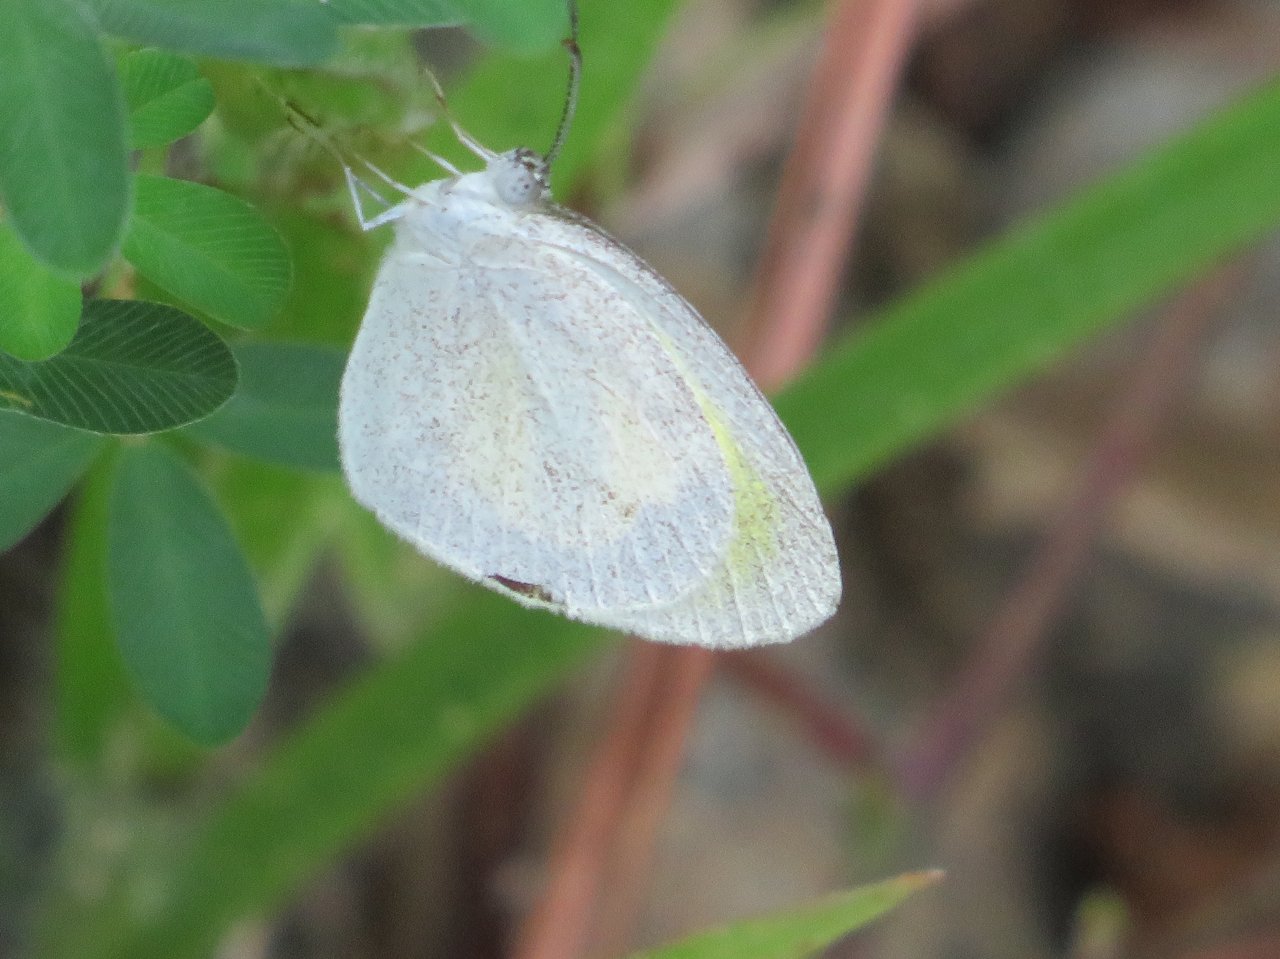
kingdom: Animalia
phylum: Arthropoda
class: Insecta
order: Lepidoptera
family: Pieridae
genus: Eurema
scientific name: Eurema daira
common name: Barred Yellow
